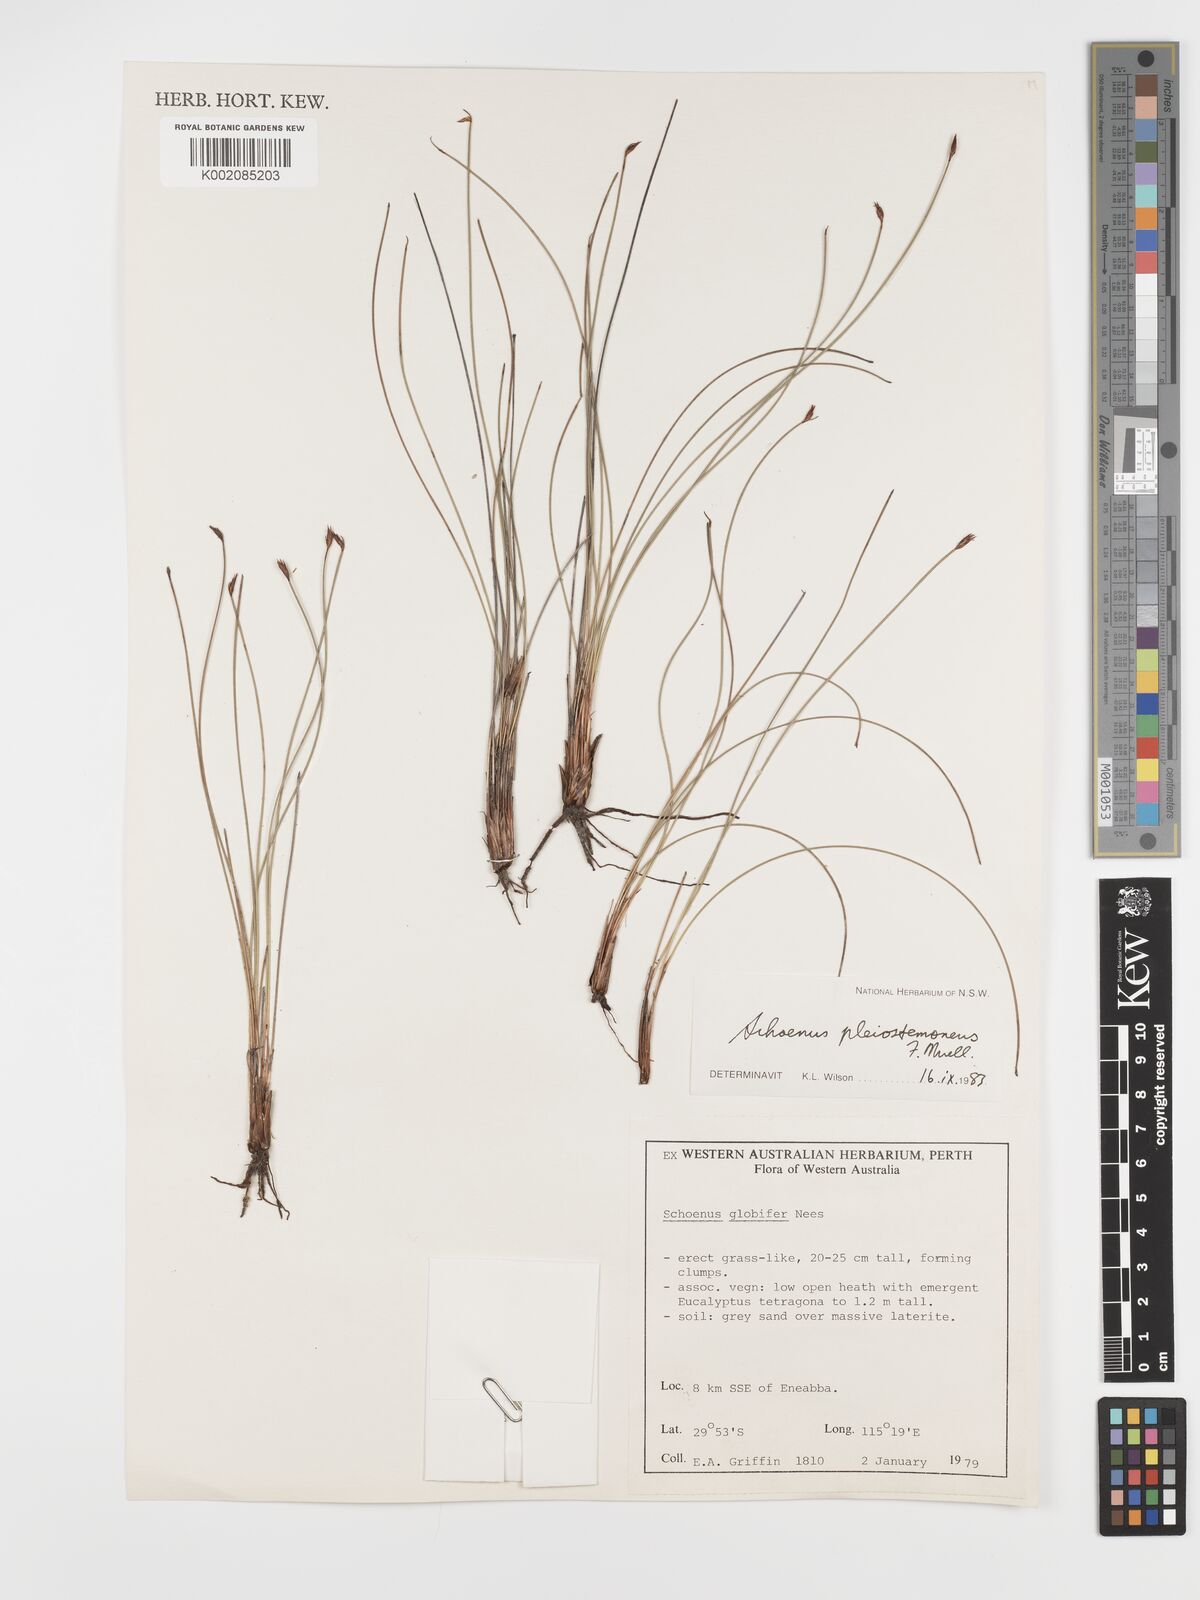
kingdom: Plantae
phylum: Tracheophyta
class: Liliopsida
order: Poales
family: Cyperaceae
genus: Schoenus
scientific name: Schoenus pleiostemoneus
